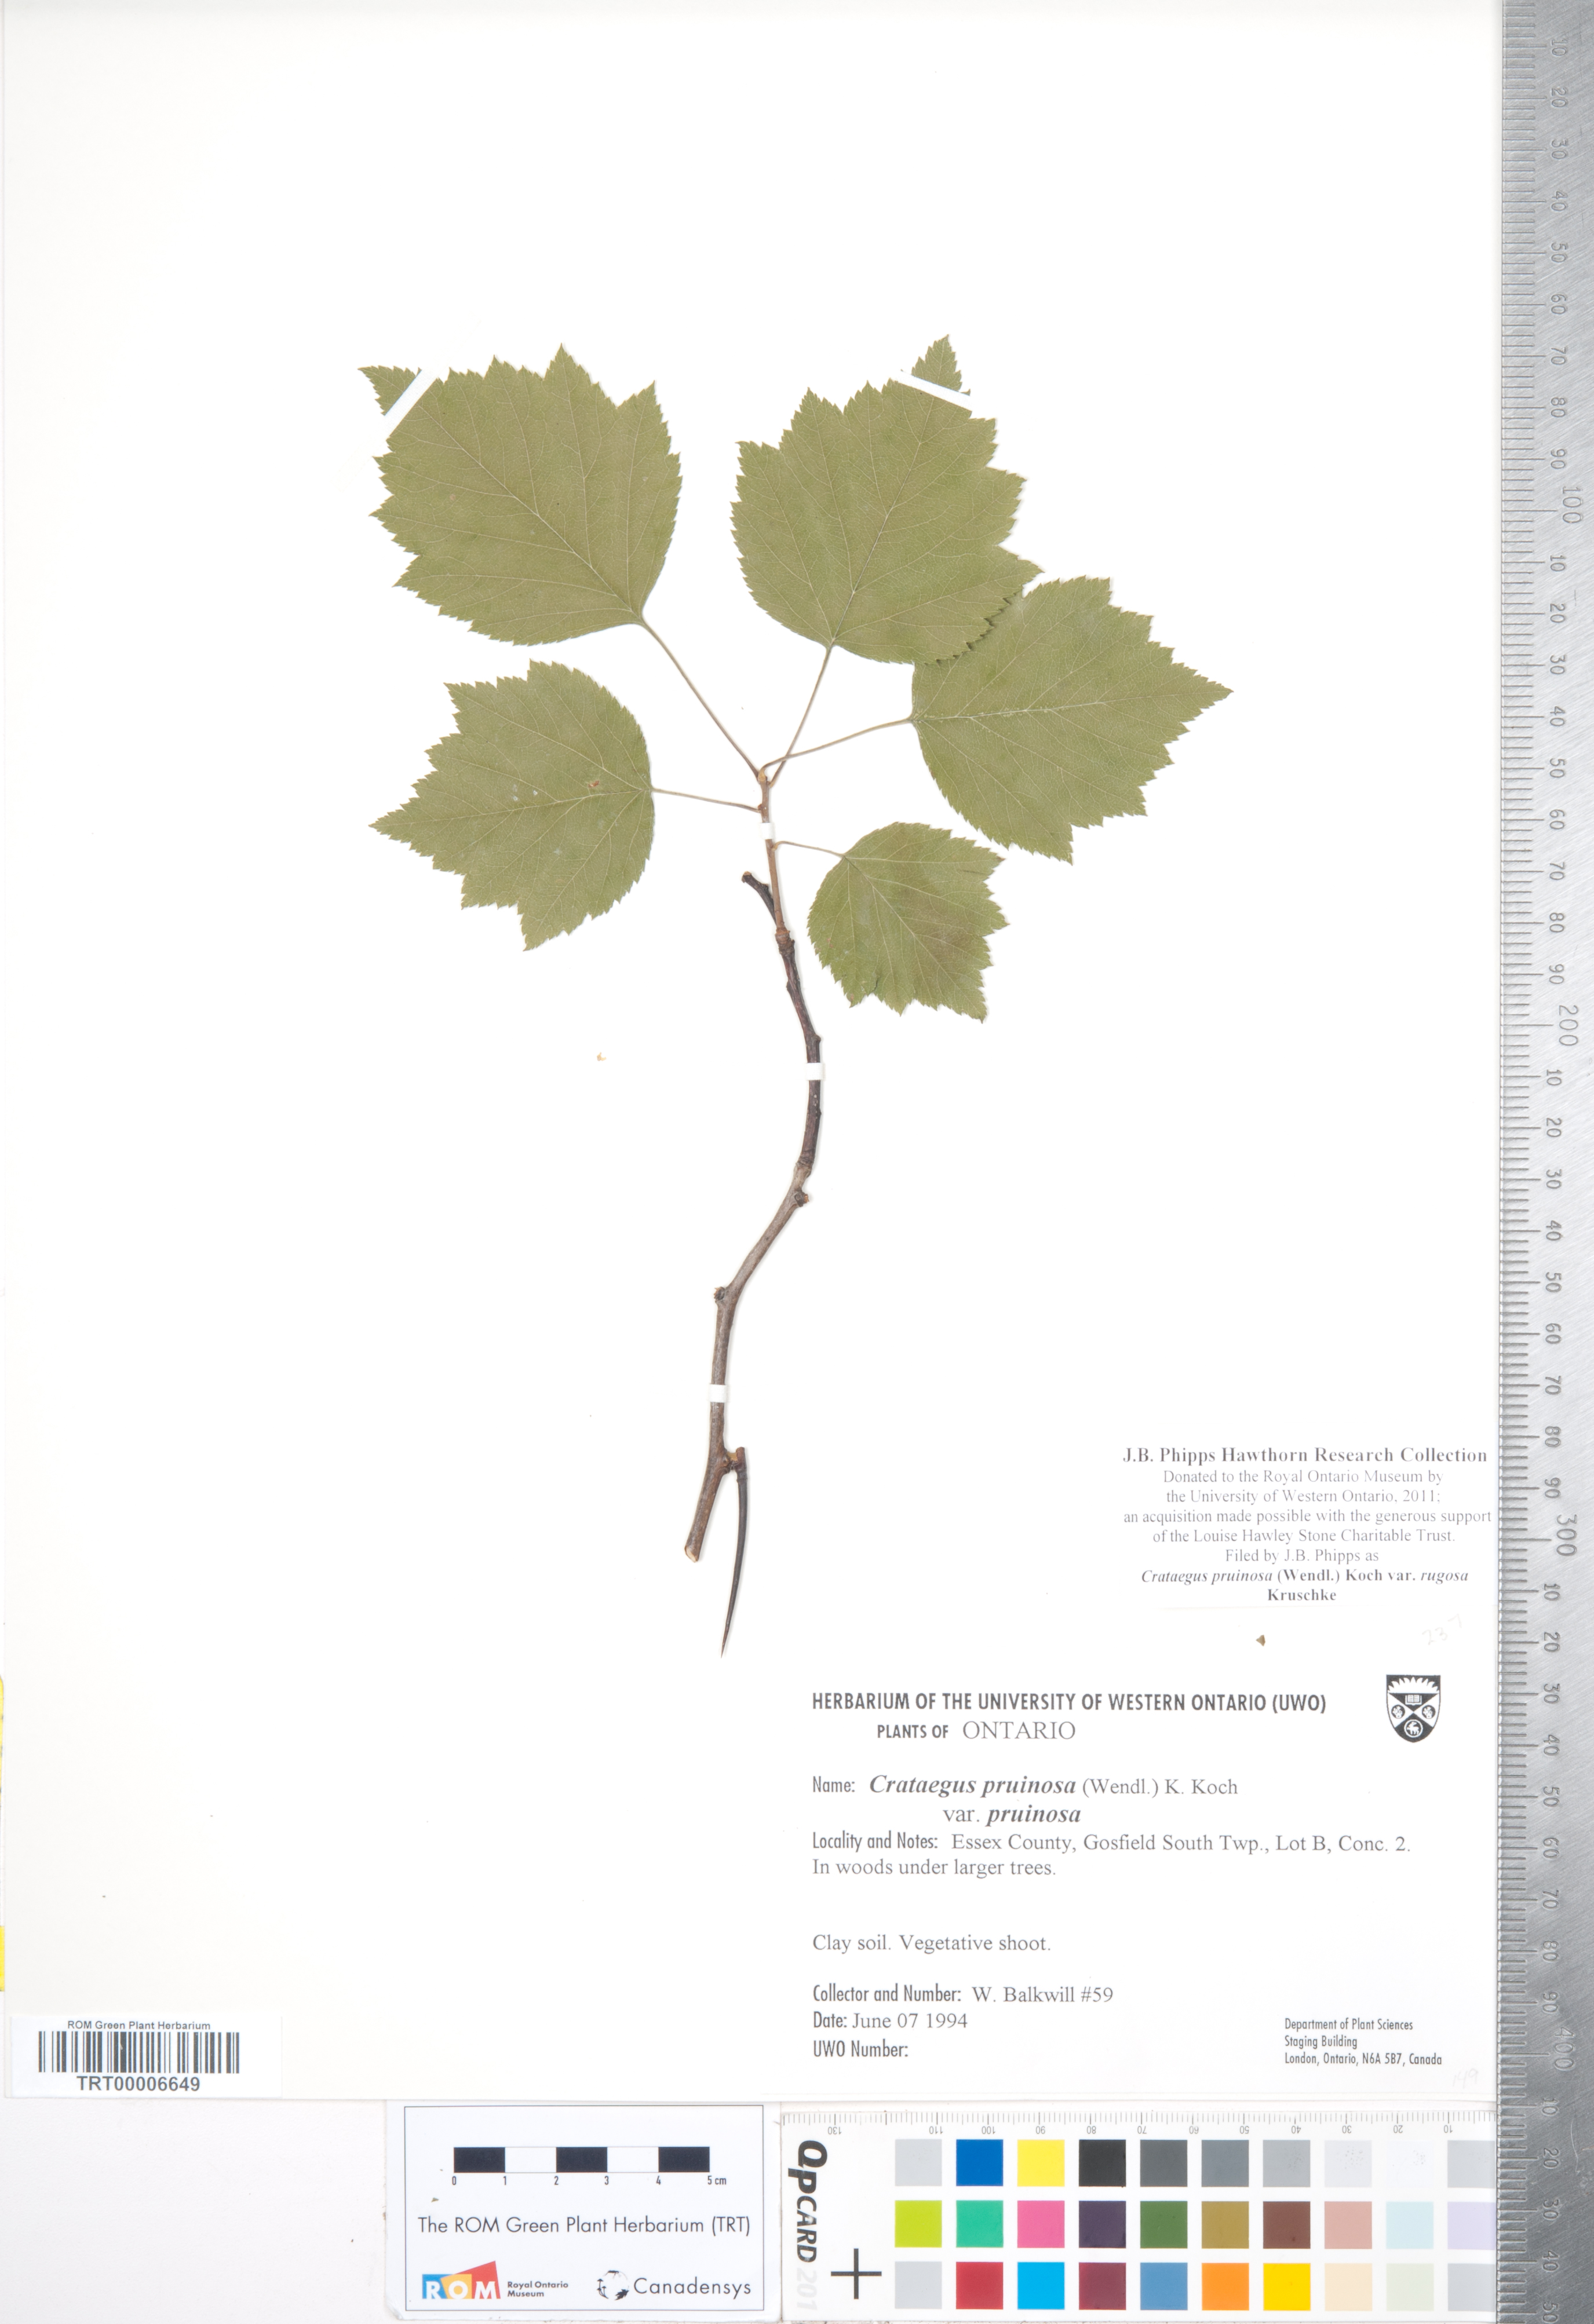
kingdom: Plantae
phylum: Tracheophyta
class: Magnoliopsida
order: Rosales
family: Rosaceae
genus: Crataegus
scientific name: Crataegus pruinosa
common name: Waxy-fruit hawthorn
